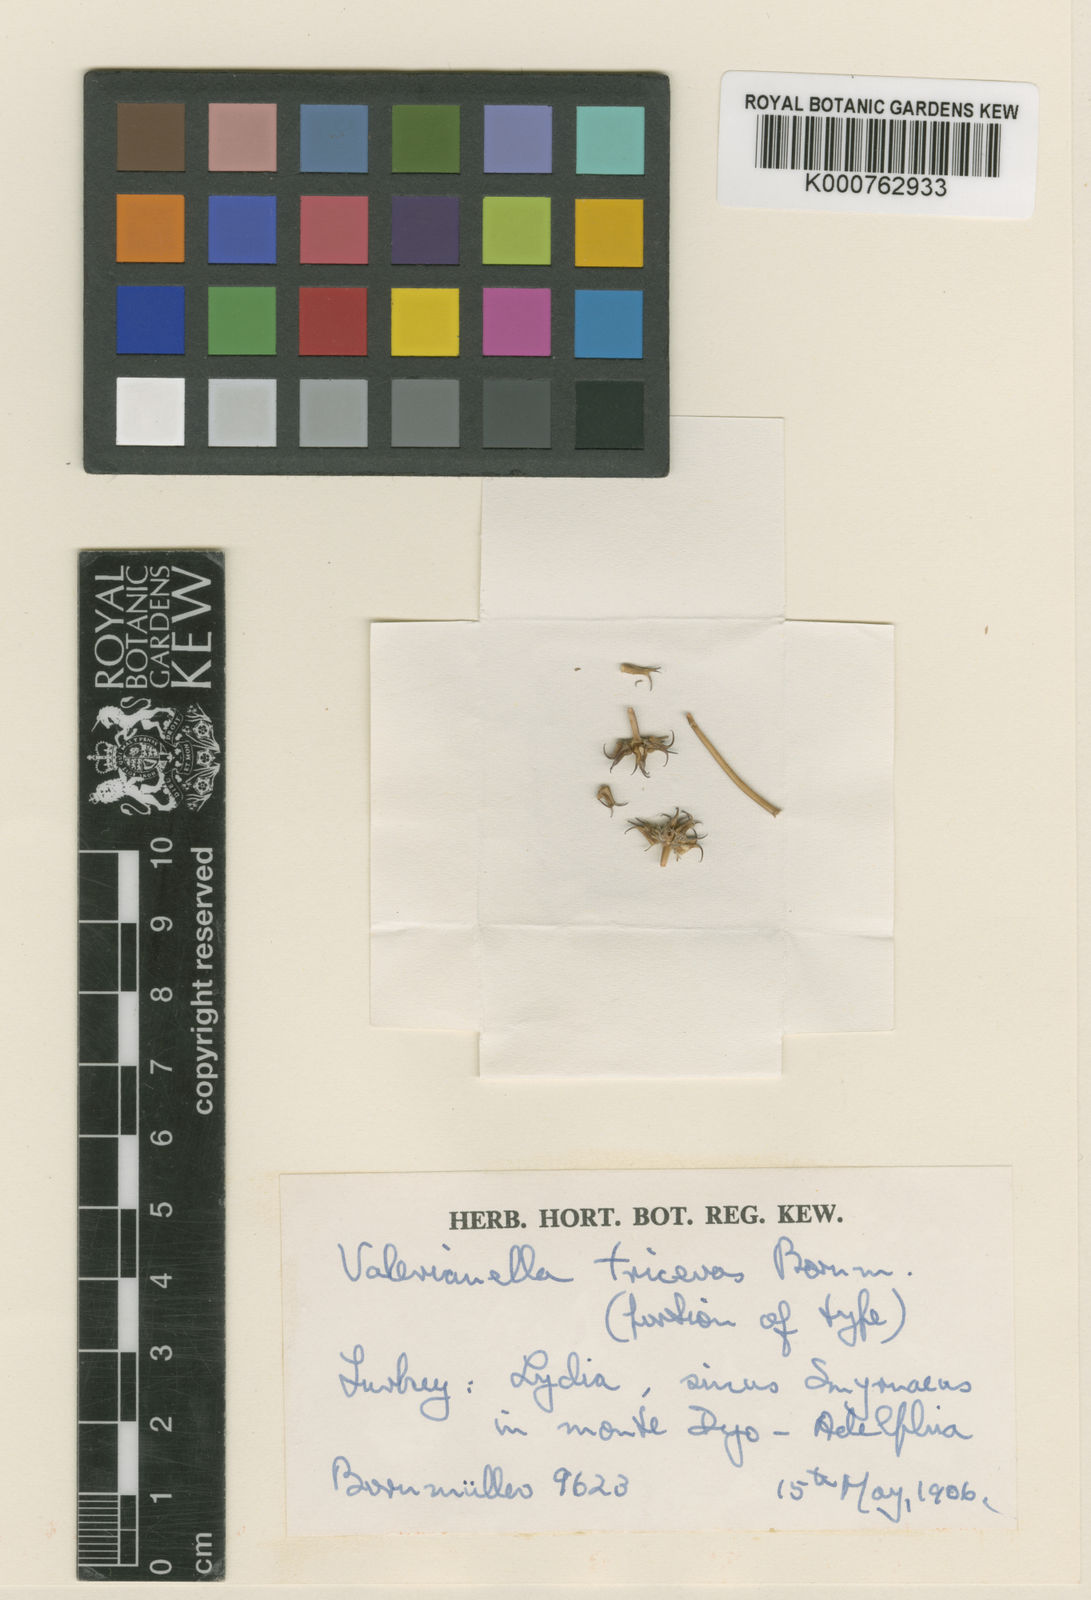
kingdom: Plantae
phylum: Tracheophyta
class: Magnoliopsida
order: Dipsacales
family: Caprifoliaceae
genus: Valerianella
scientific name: Valerianella triceras
